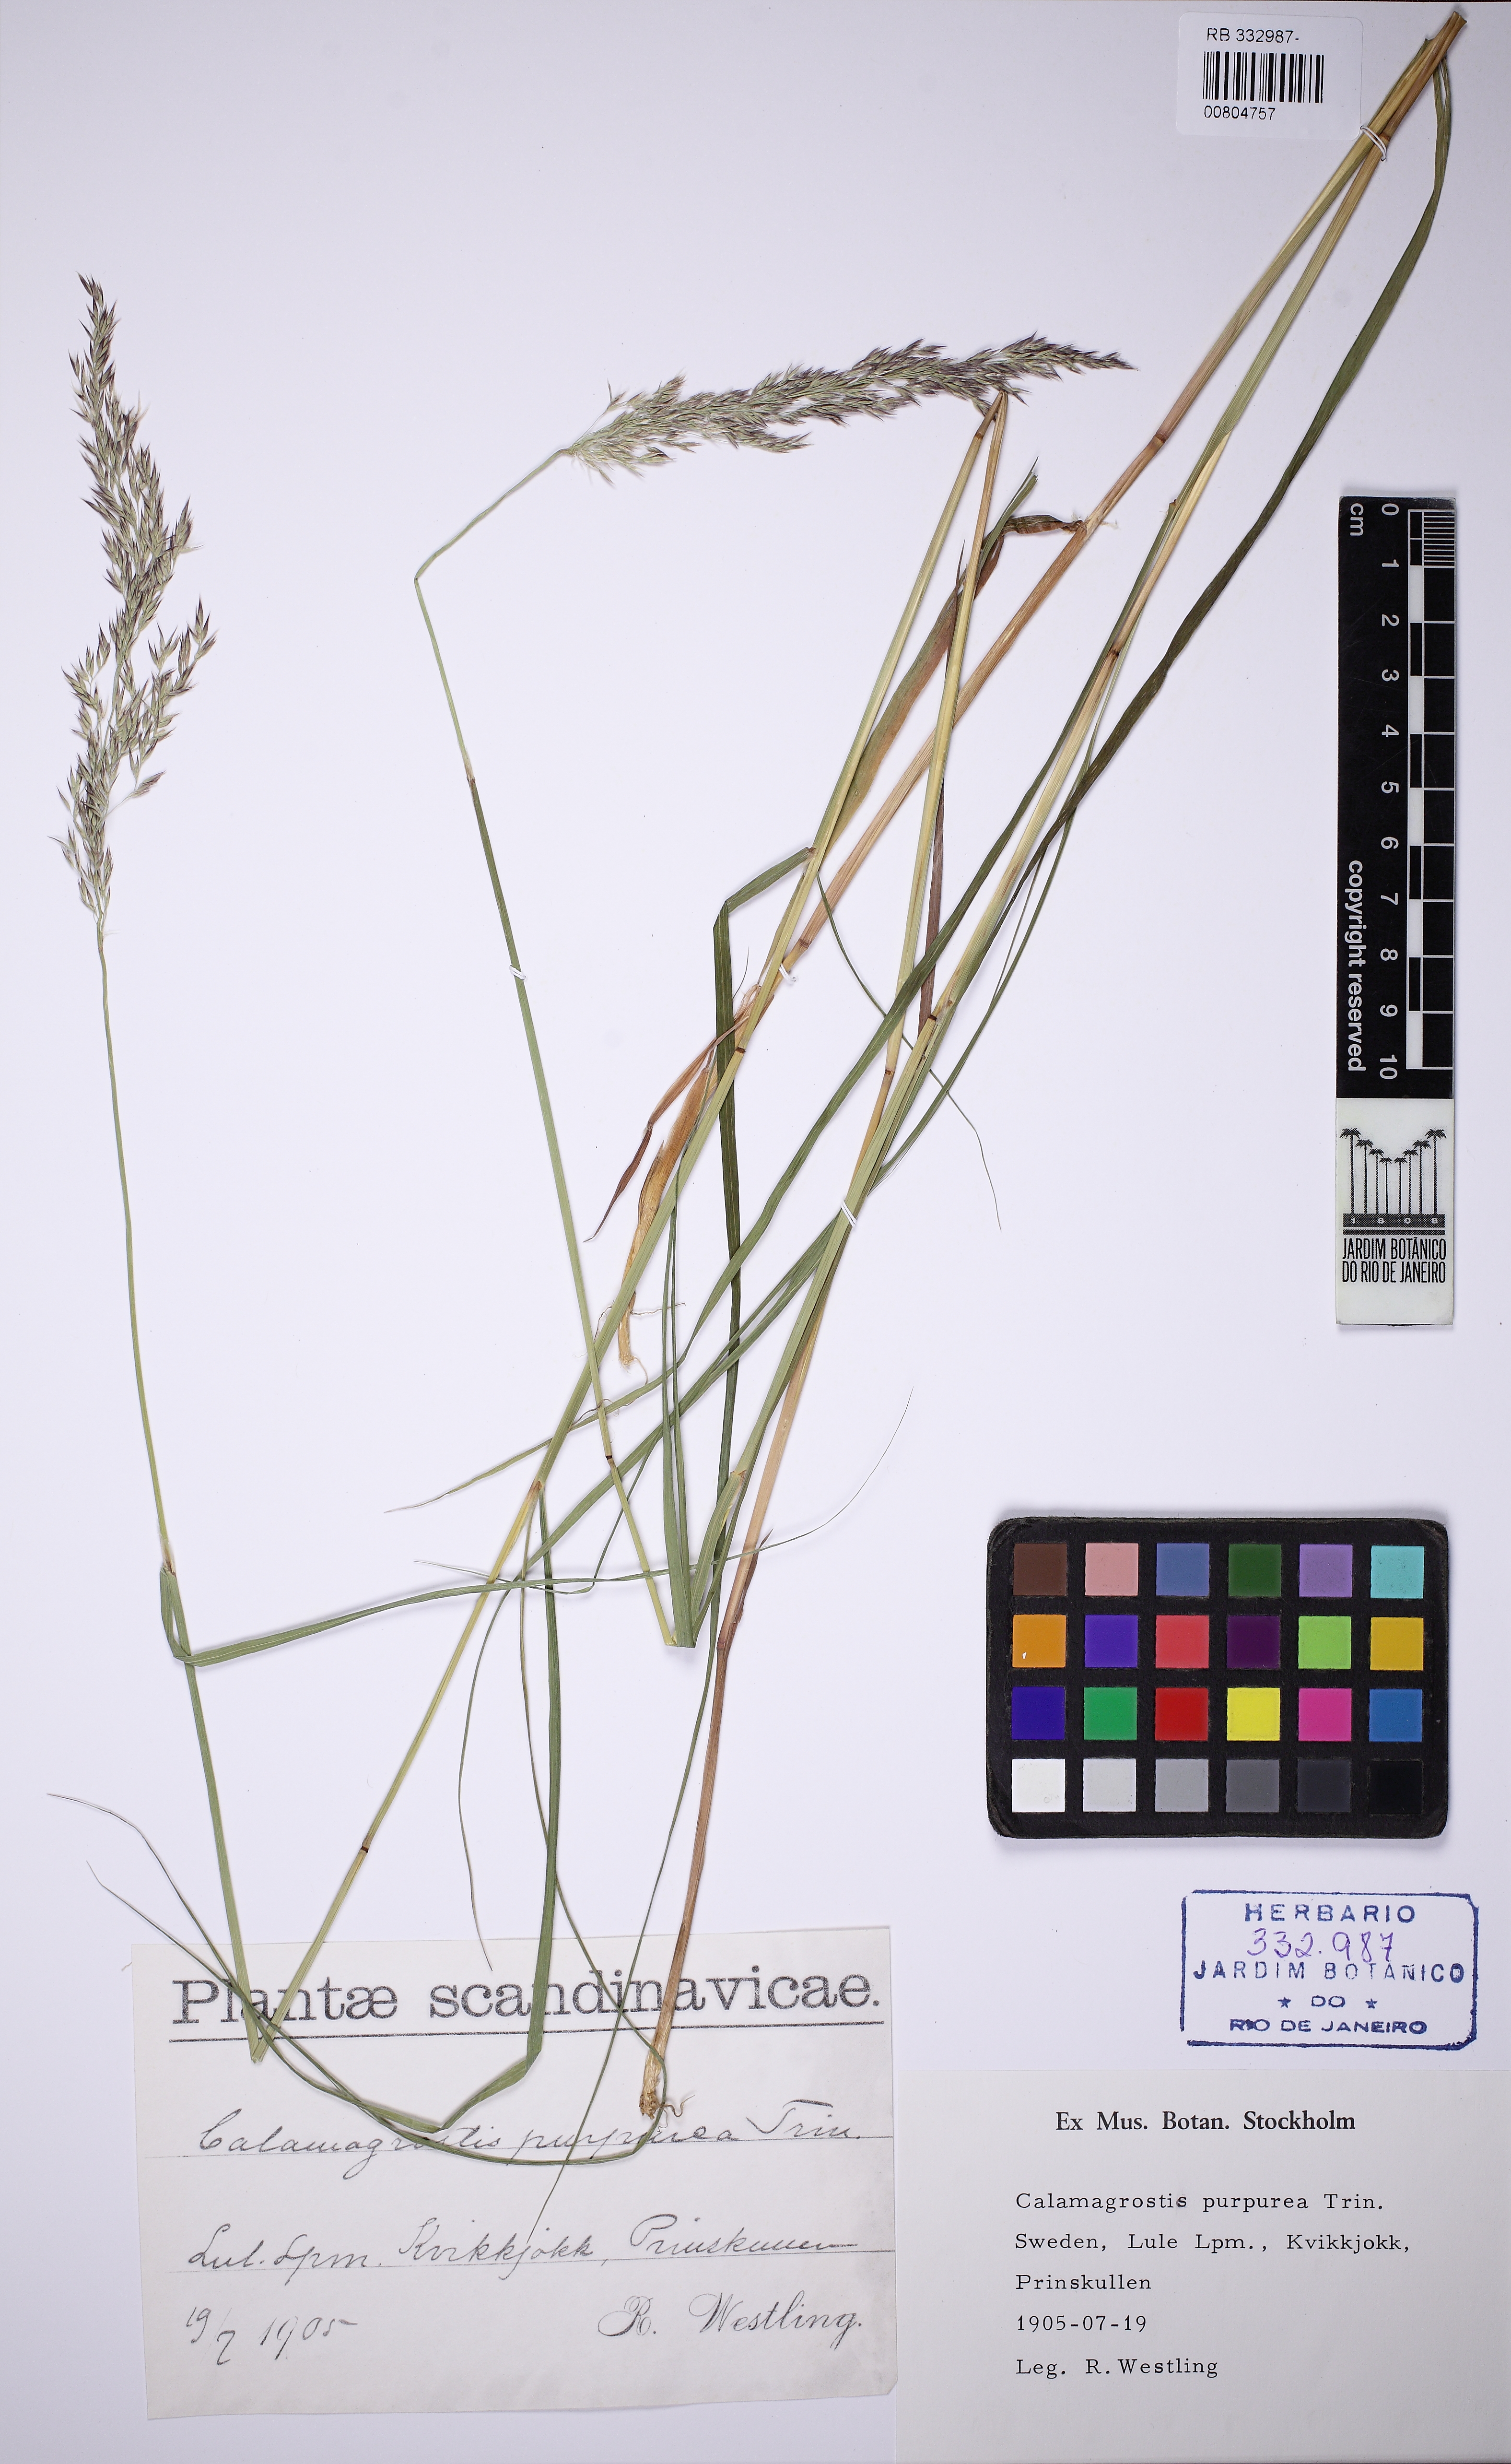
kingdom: Plantae
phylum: Tracheophyta
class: Liliopsida
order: Poales
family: Poaceae
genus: Calamagrostis
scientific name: Calamagrostis purpurea
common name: Scandinavian small-reed
